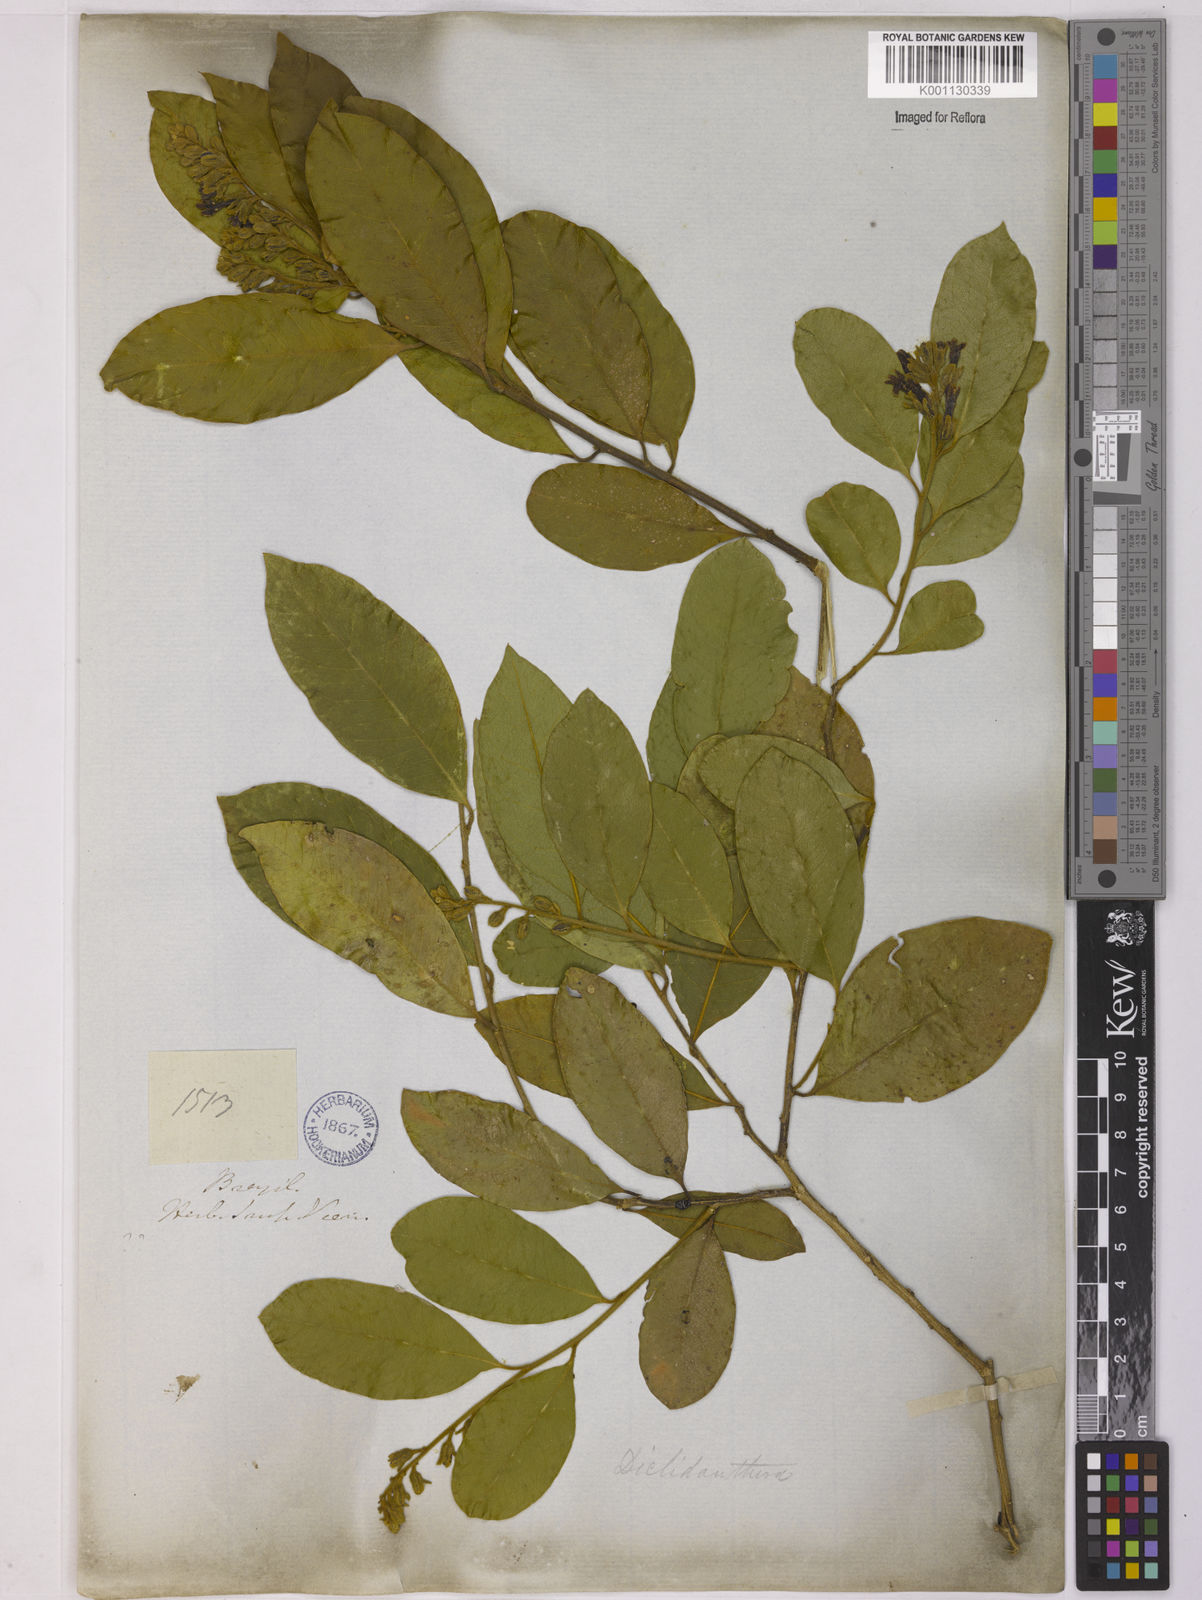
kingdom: Plantae
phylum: Tracheophyta
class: Magnoliopsida
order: Fabales
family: Polygalaceae
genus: Diclidanthera
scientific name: Diclidanthera
